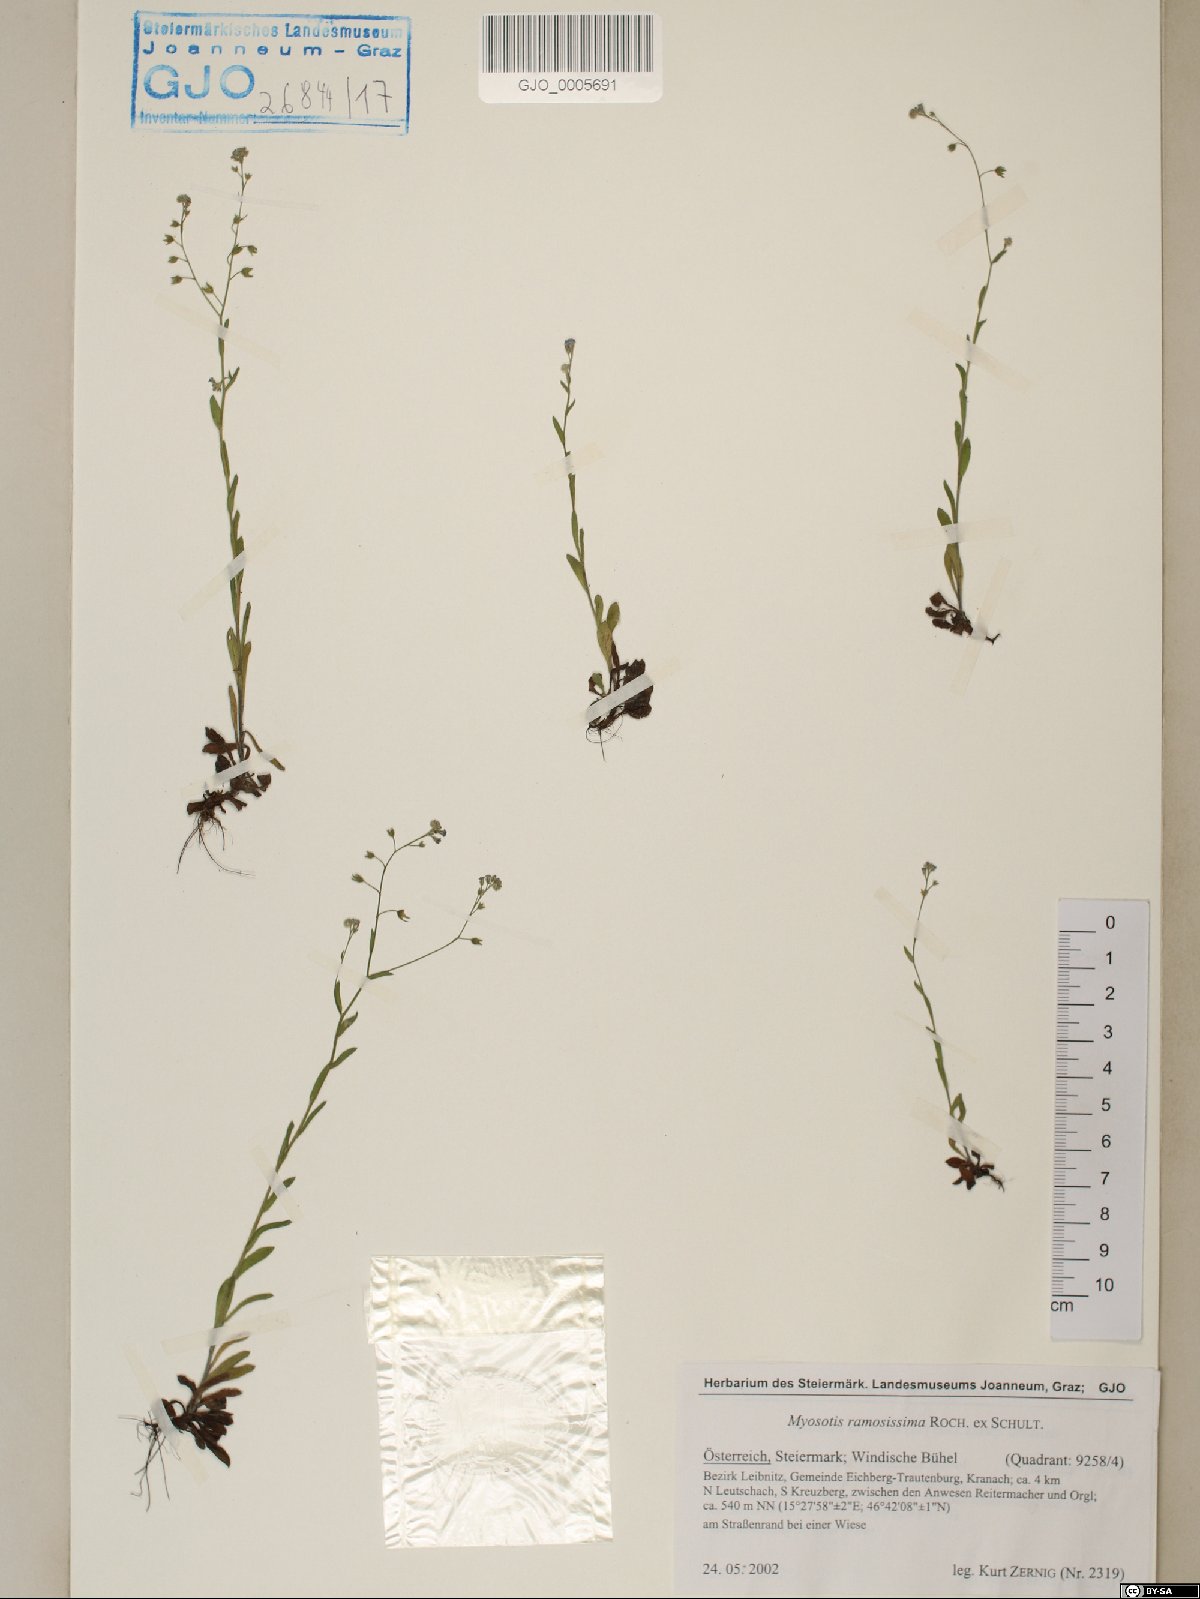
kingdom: Plantae
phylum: Tracheophyta
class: Magnoliopsida
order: Boraginales
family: Boraginaceae
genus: Myosotis
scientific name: Myosotis ramosissima
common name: Early forget-me-not
